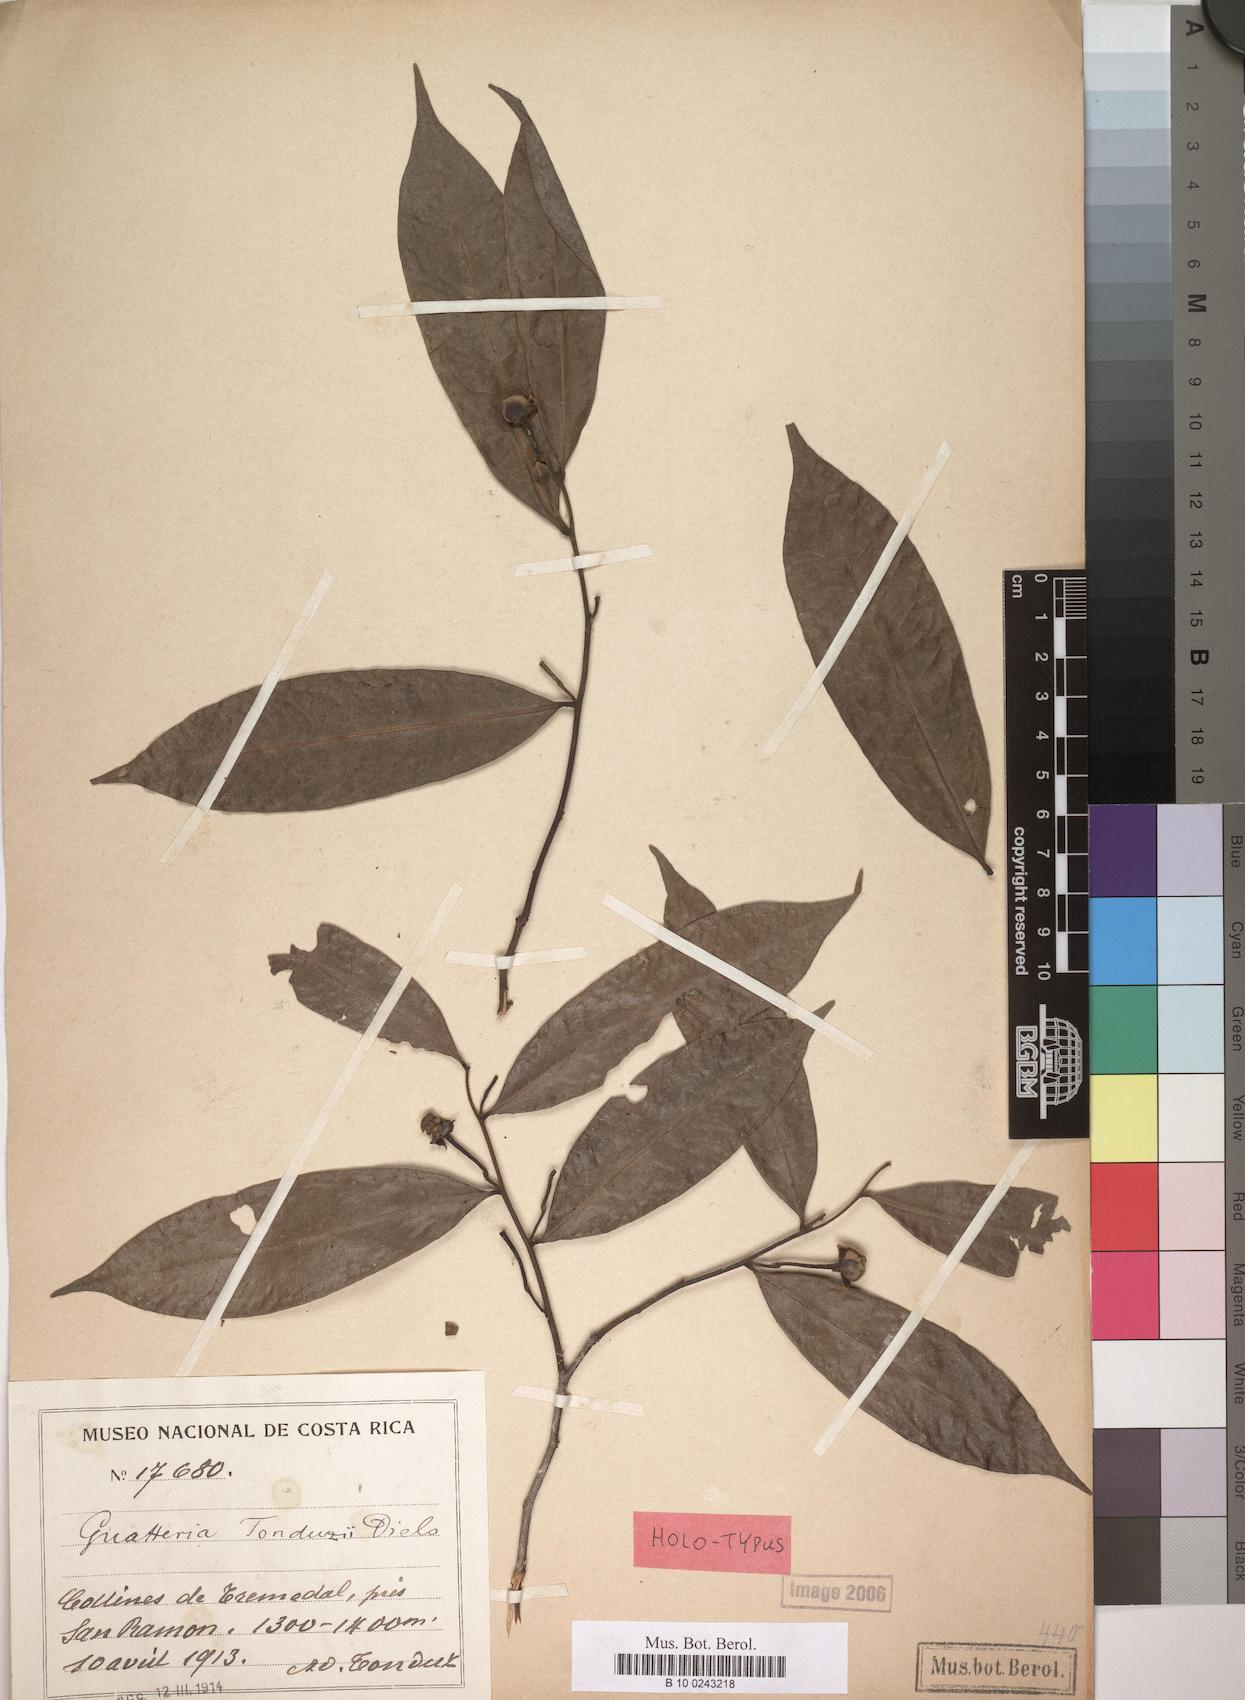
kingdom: Plantae
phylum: Tracheophyta
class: Magnoliopsida
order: Magnoliales
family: Annonaceae
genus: Guatteria
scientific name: Guatteria tonduzii
